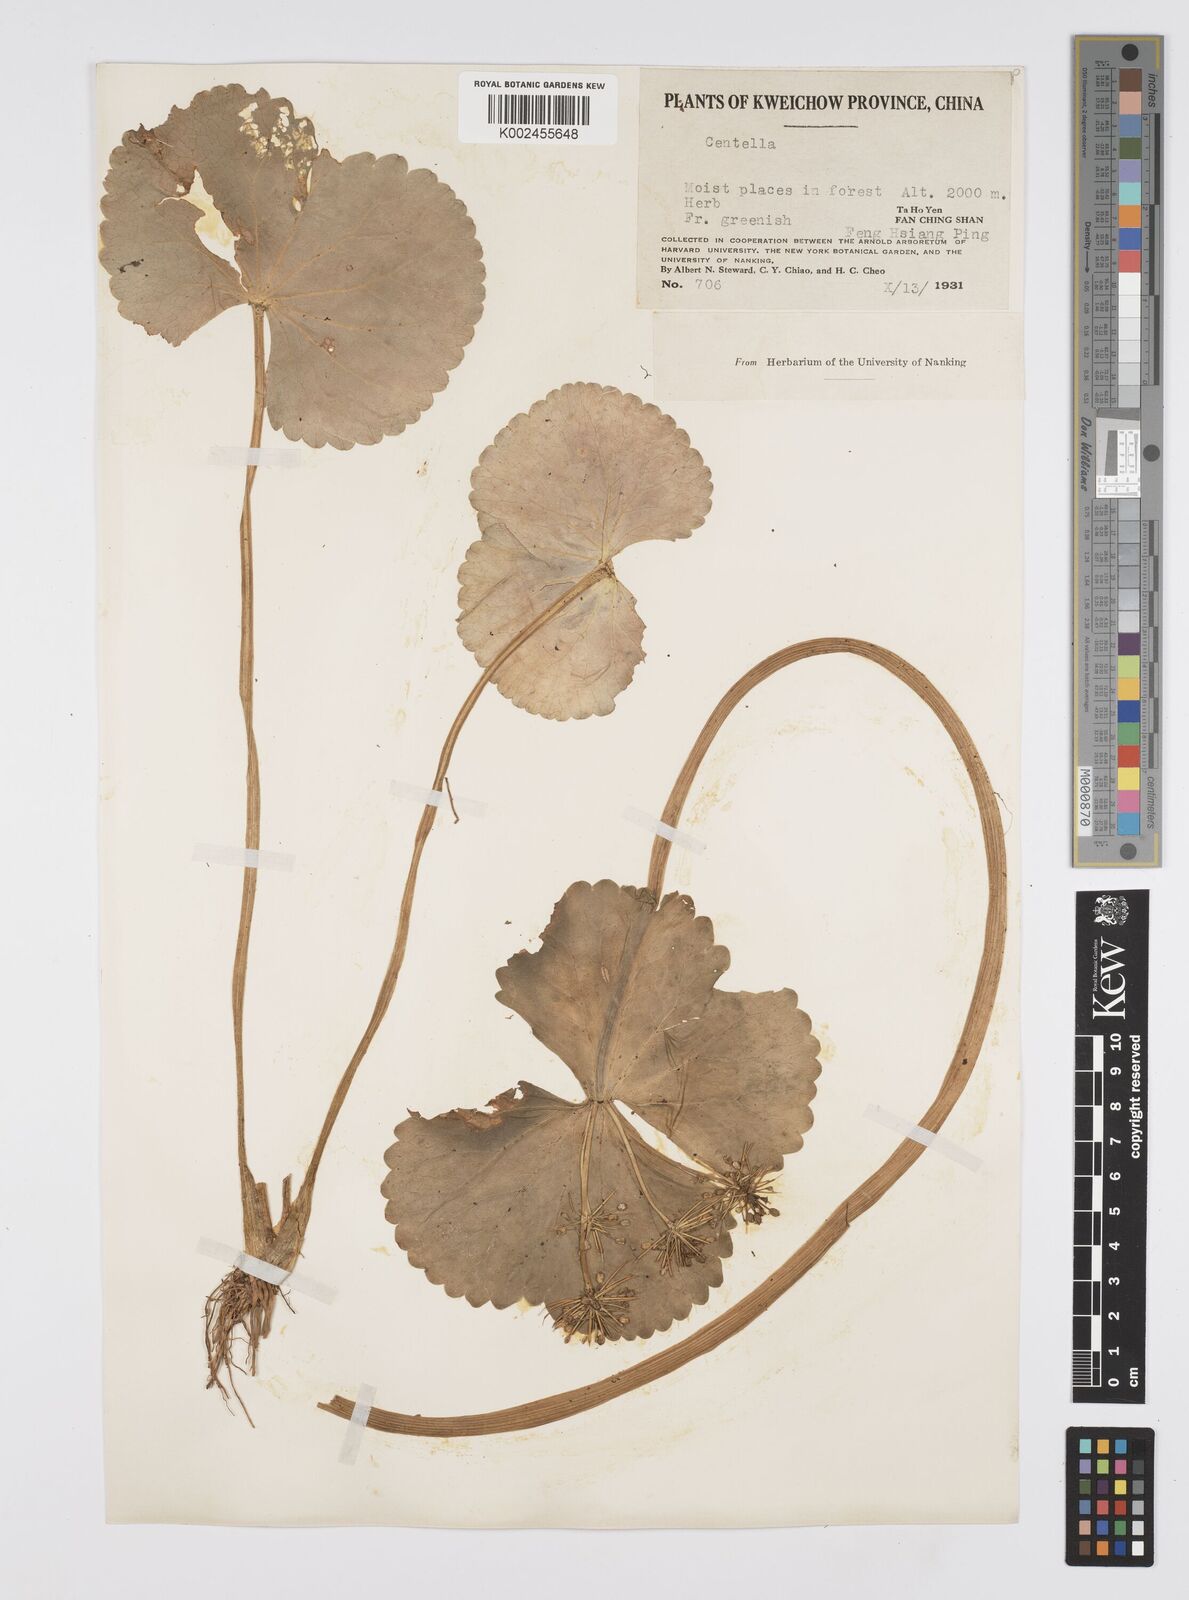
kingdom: Plantae
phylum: Tracheophyta
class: Magnoliopsida
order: Apiales
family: Apiaceae
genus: Dickinsia
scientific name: Dickinsia hydrocotyloides
